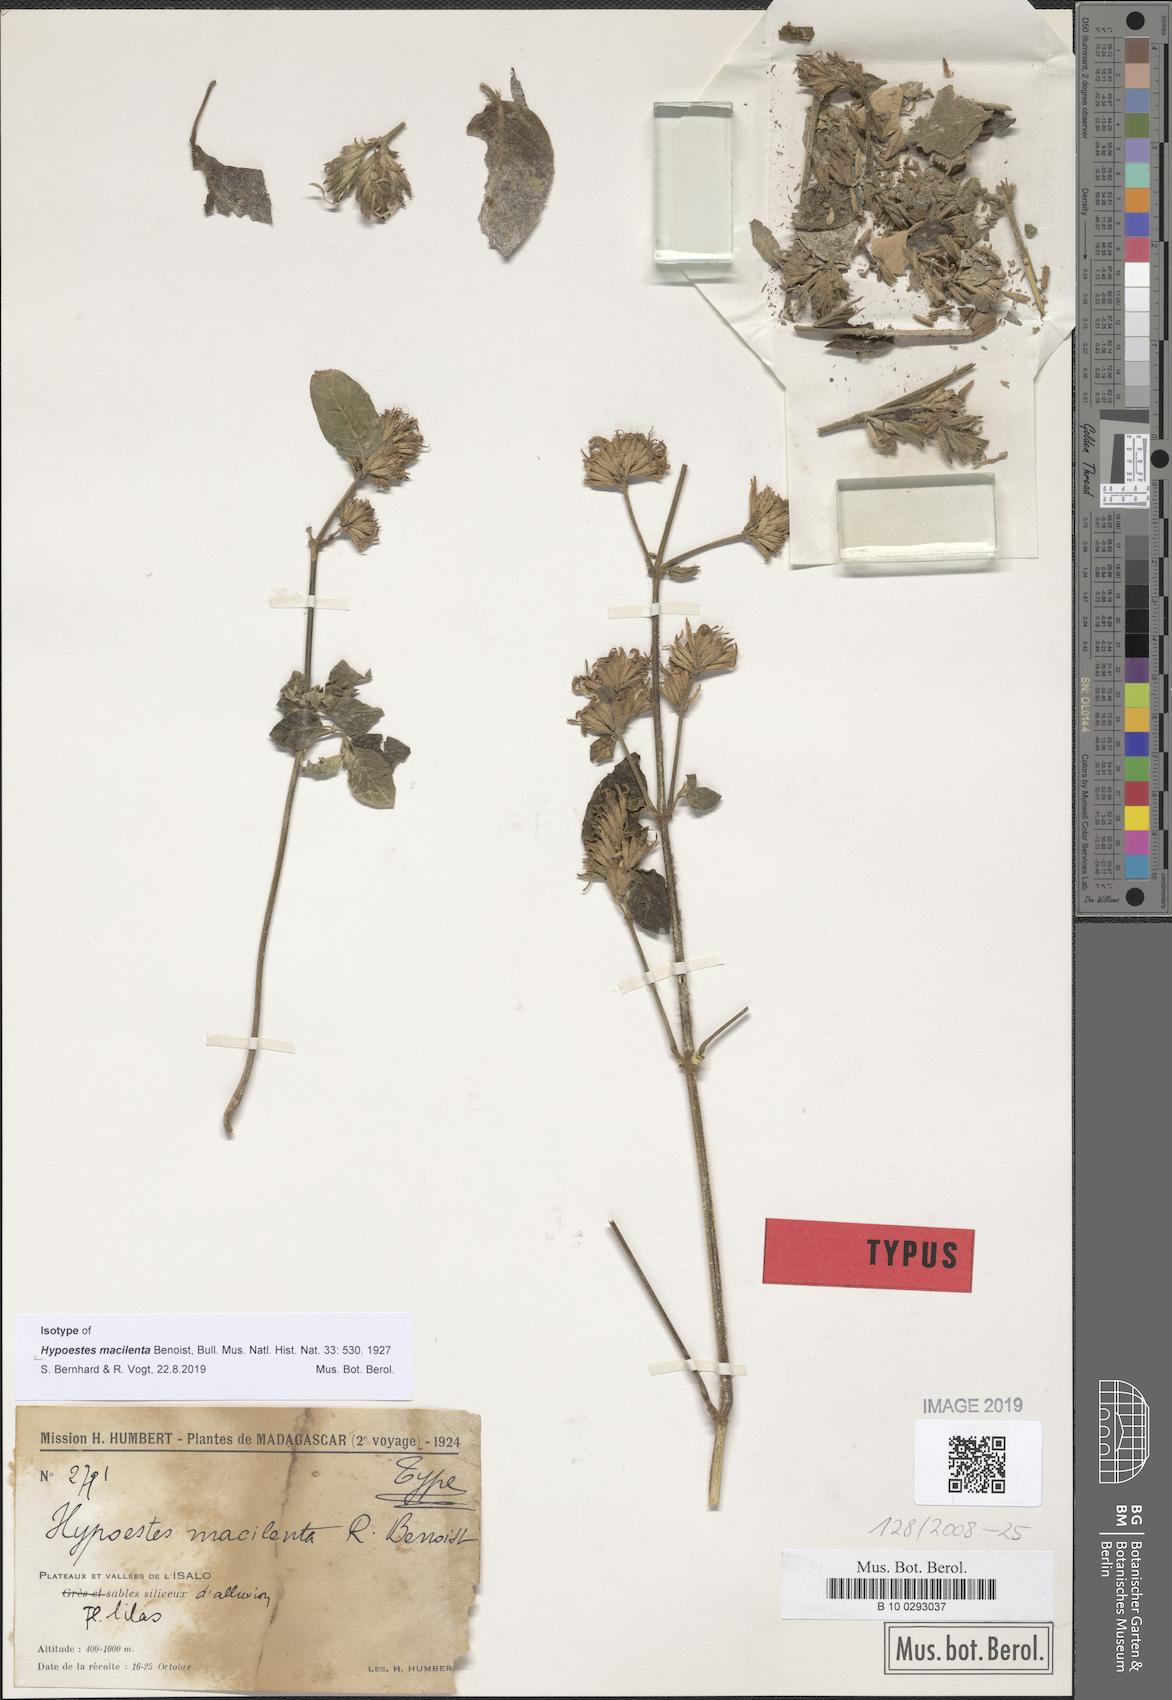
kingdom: Plantae
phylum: Tracheophyta
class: Magnoliopsida
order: Lamiales
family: Acanthaceae
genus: Hypoestes
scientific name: Hypoestes macilenta
